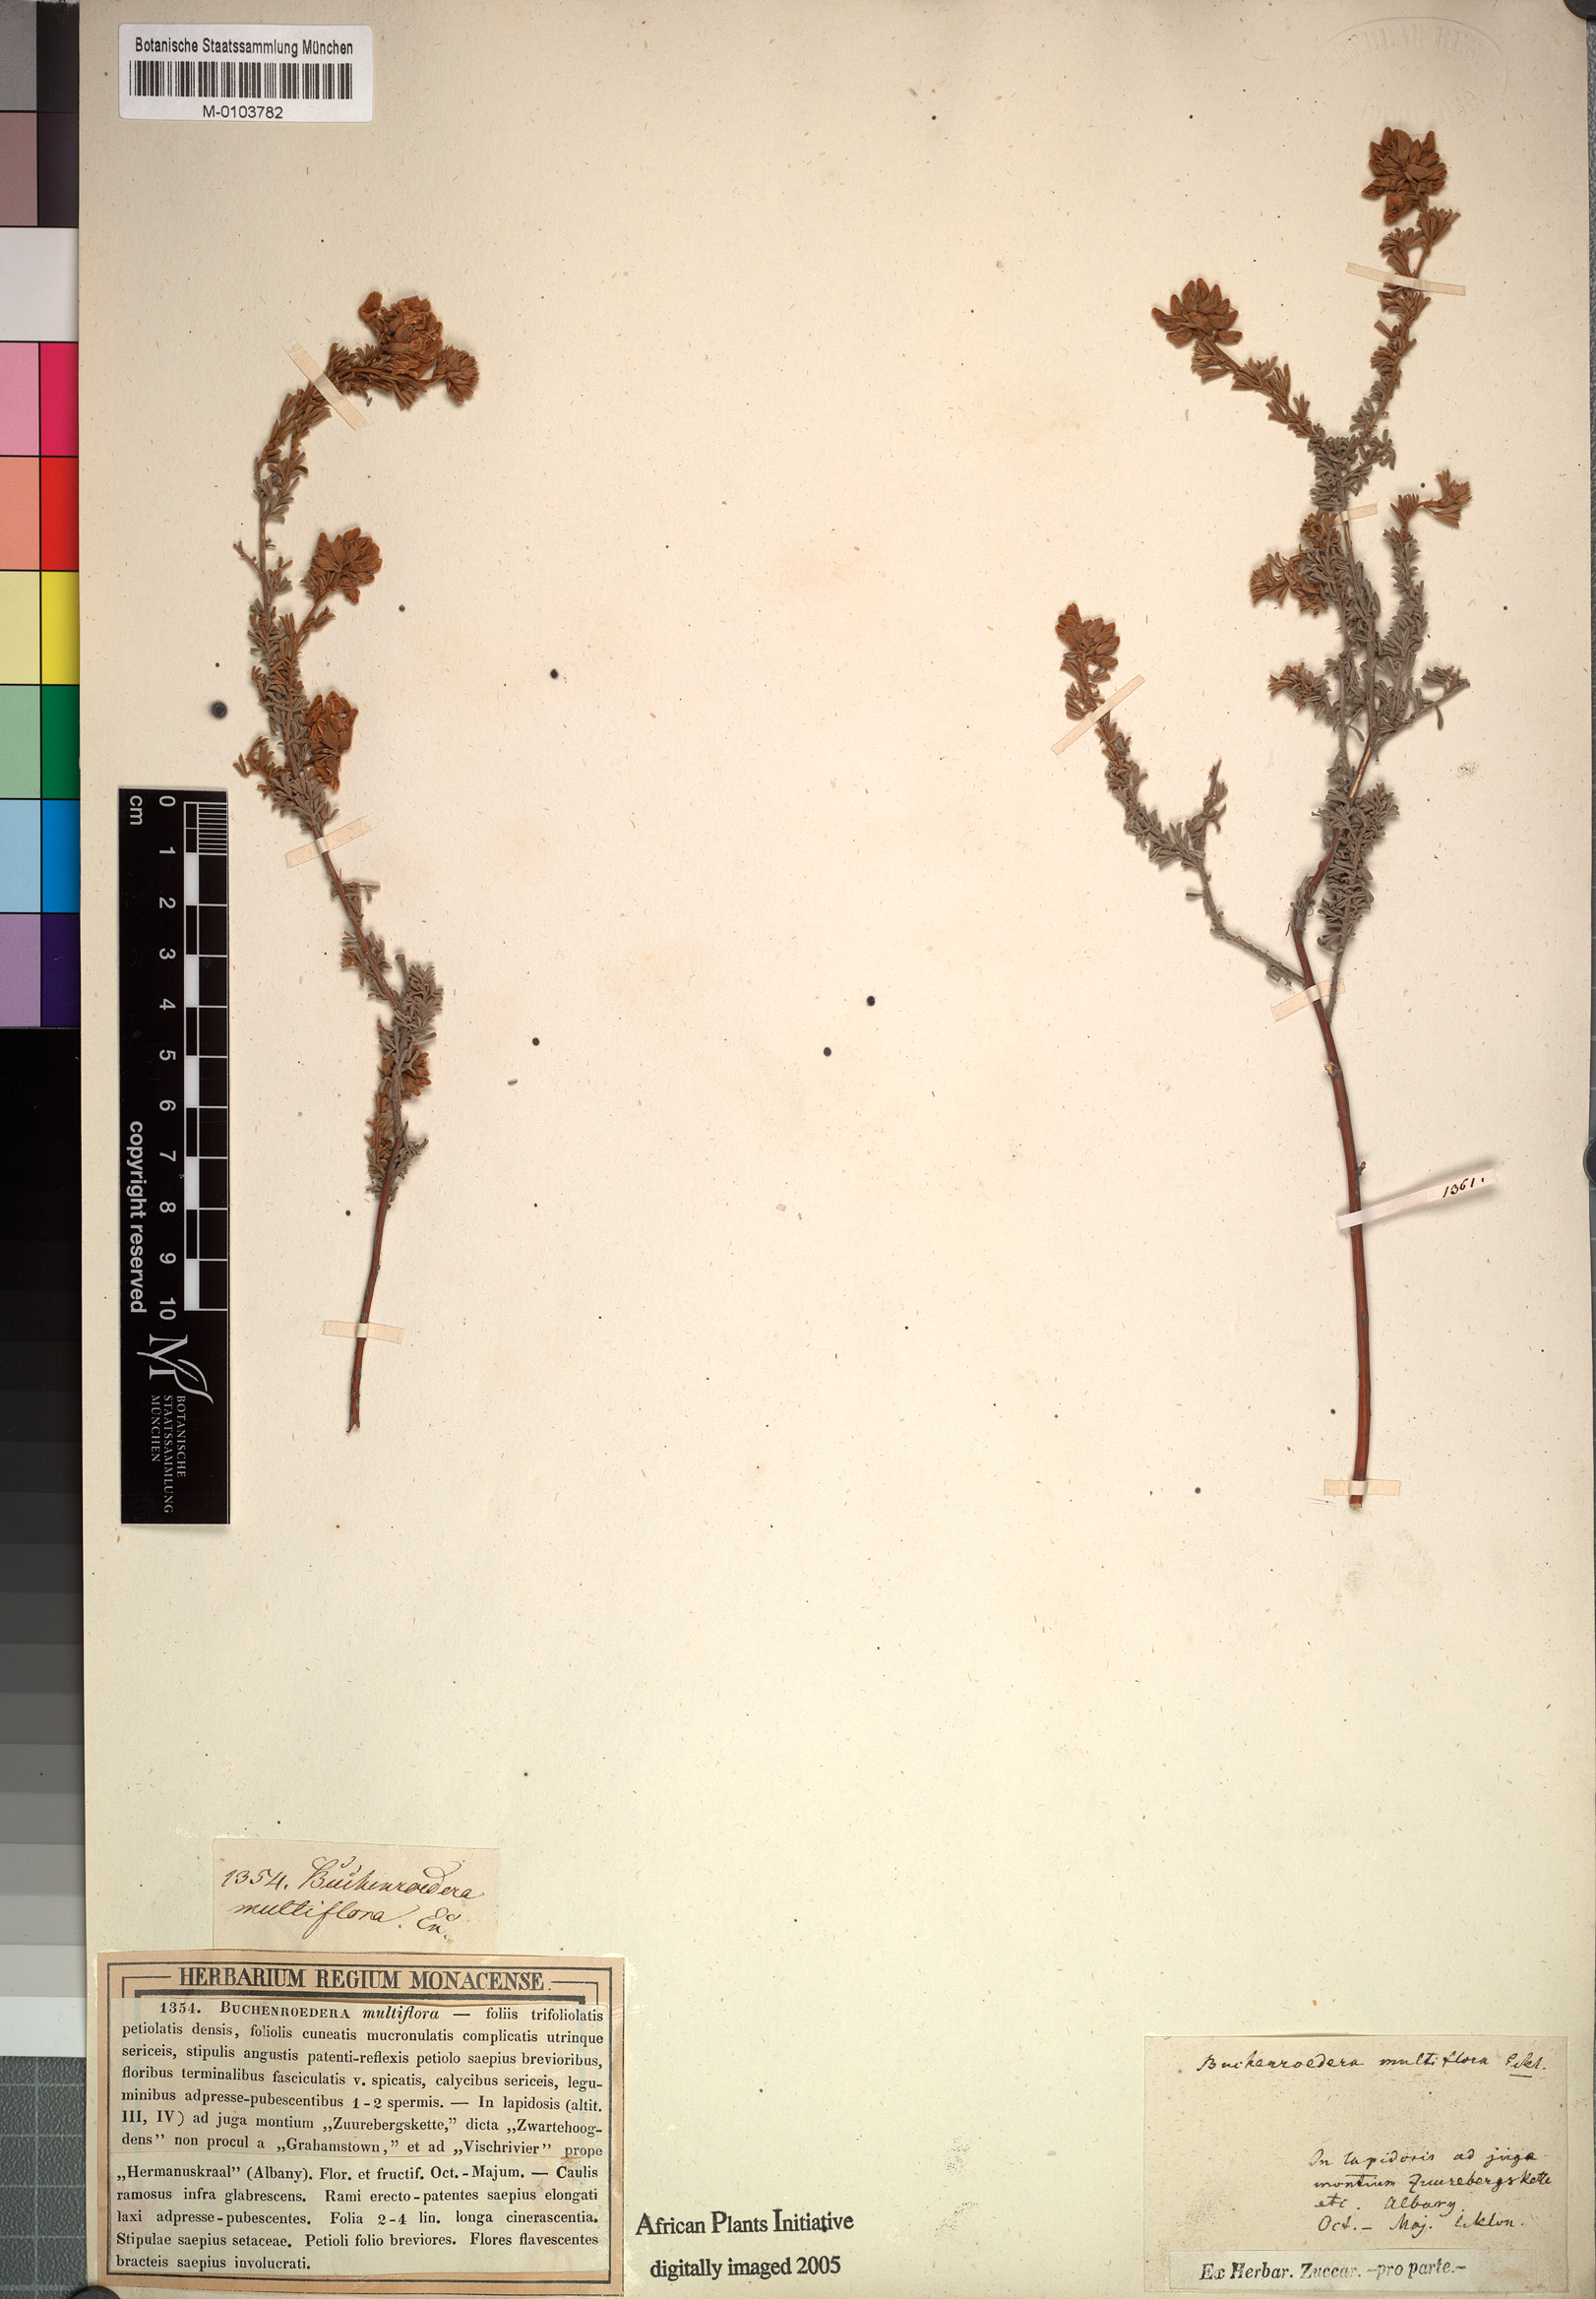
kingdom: Plantae
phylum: Tracheophyta
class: Magnoliopsida
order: Fabales
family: Fabaceae
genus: Lotononis
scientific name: Lotononis alpina
